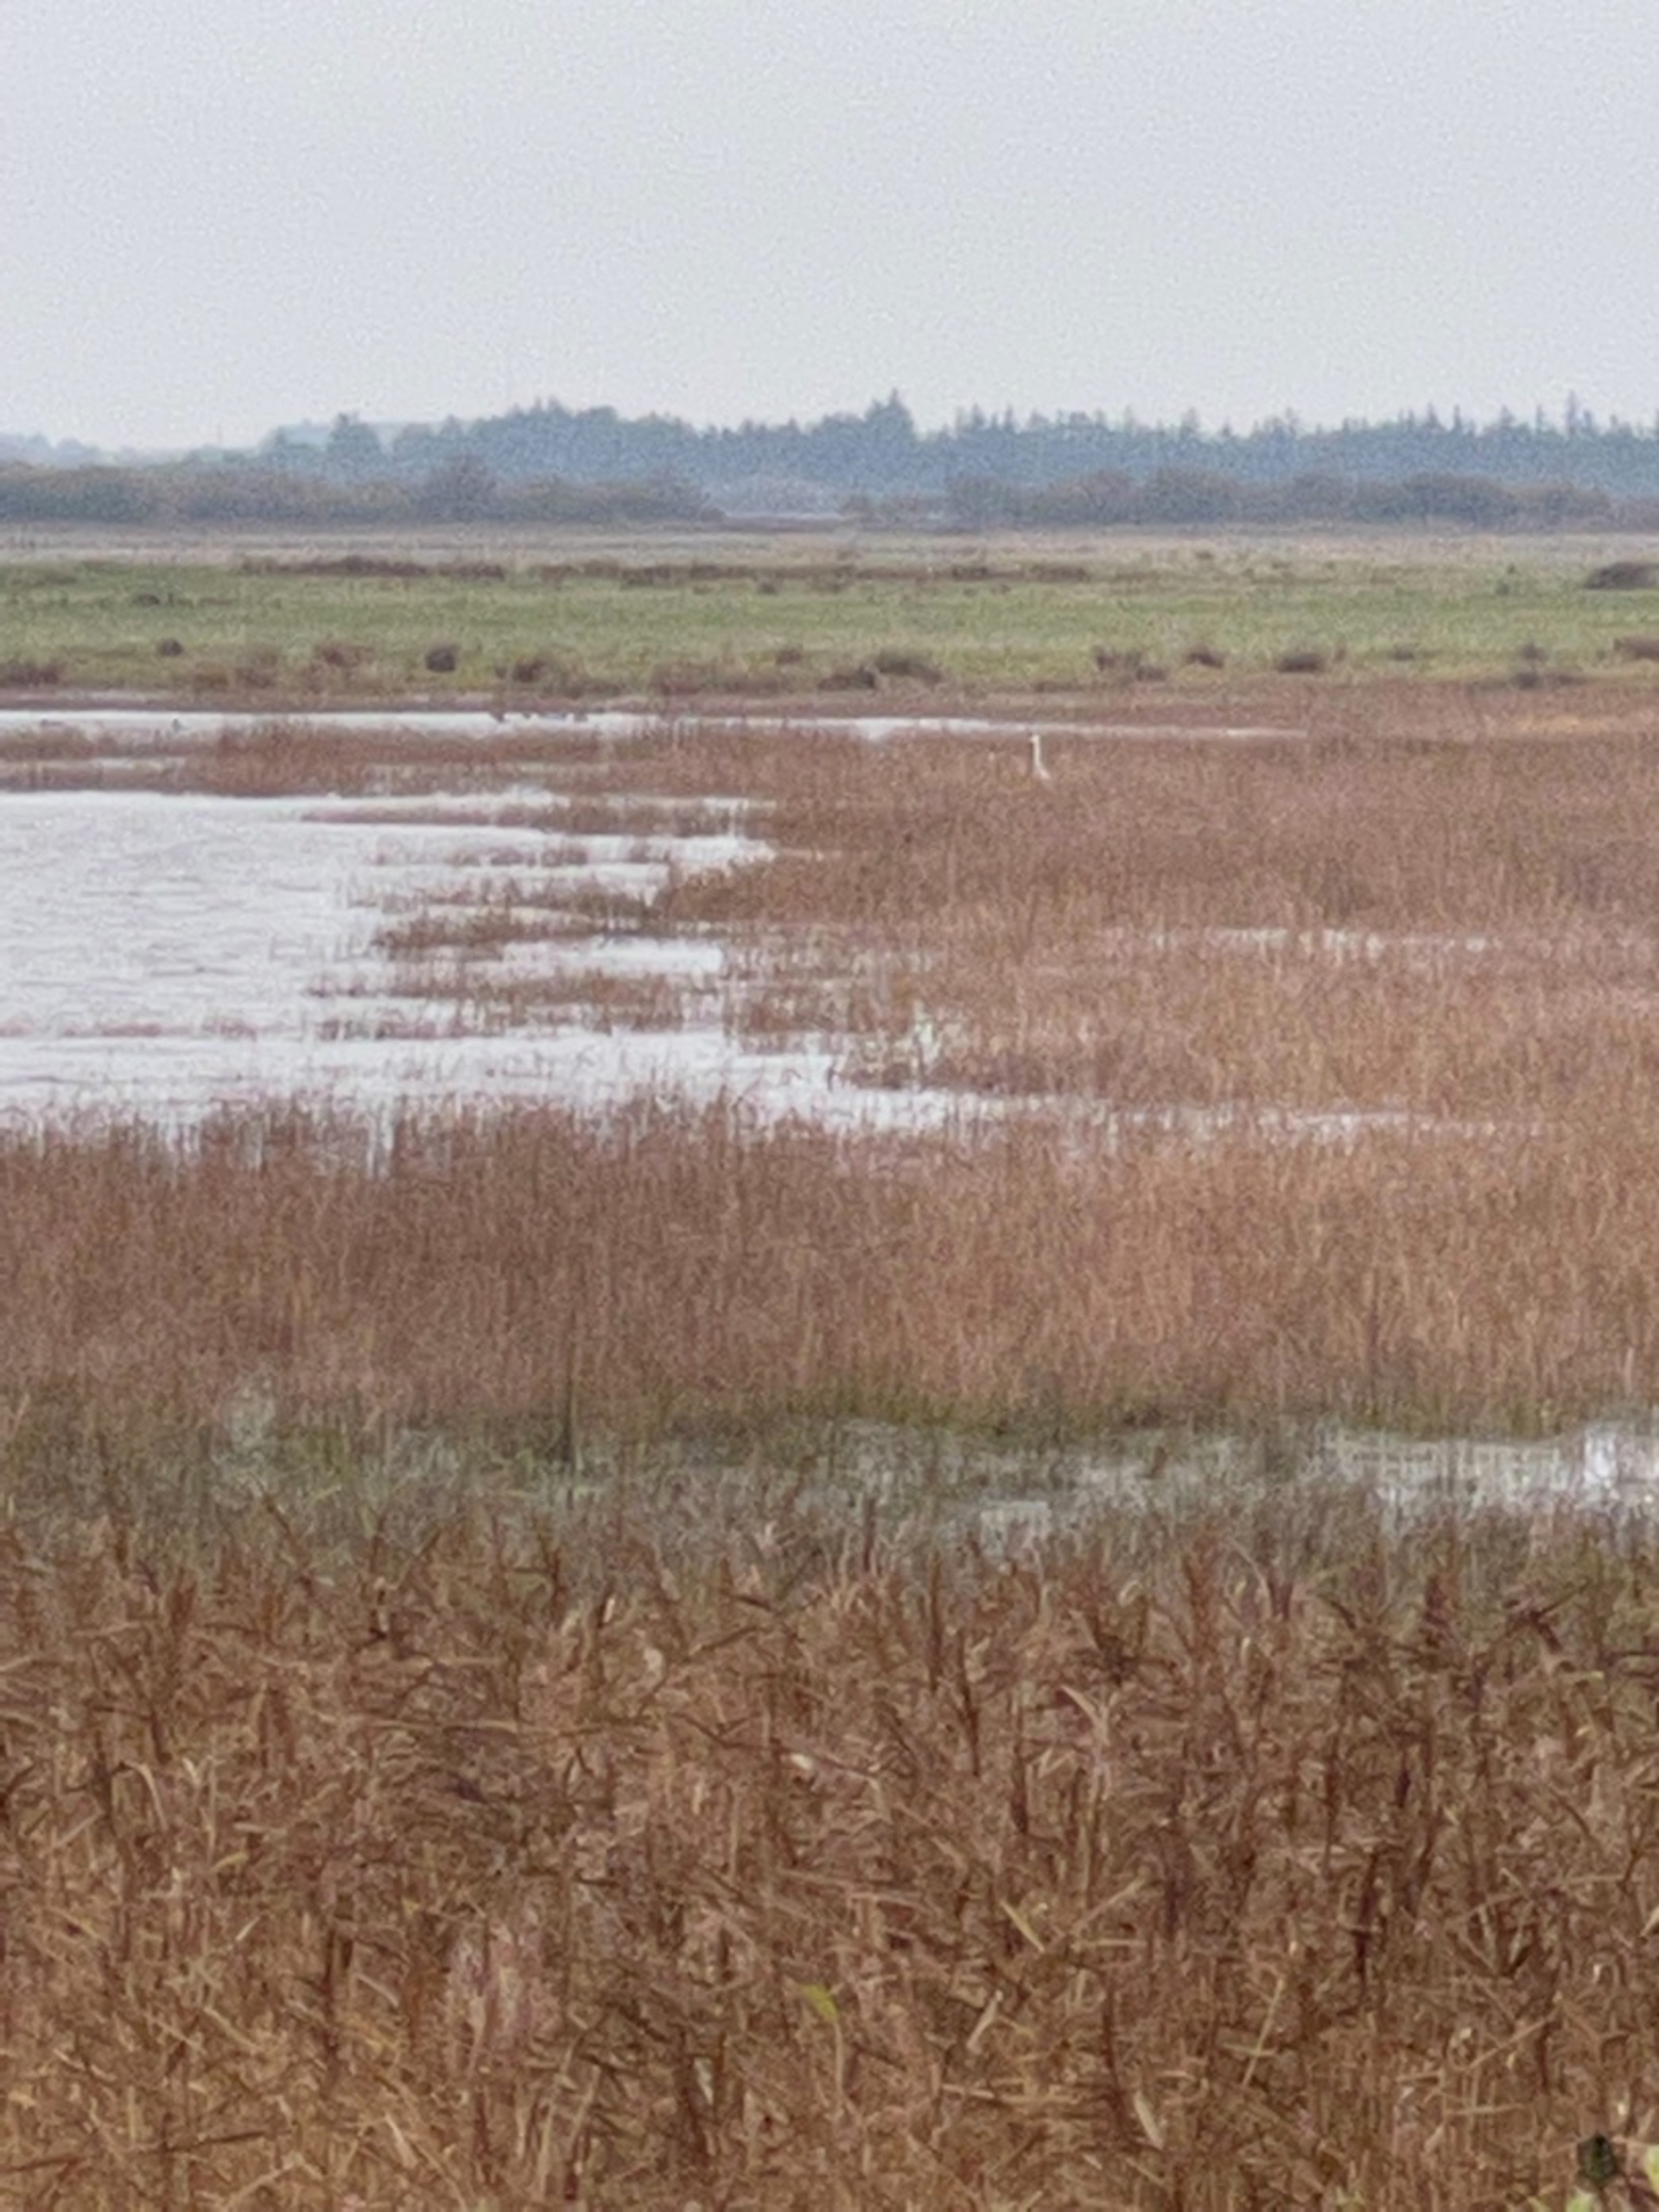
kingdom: Animalia
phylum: Chordata
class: Aves
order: Pelecaniformes
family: Ardeidae
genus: Ardea
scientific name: Ardea alba
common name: Sølvhejre
